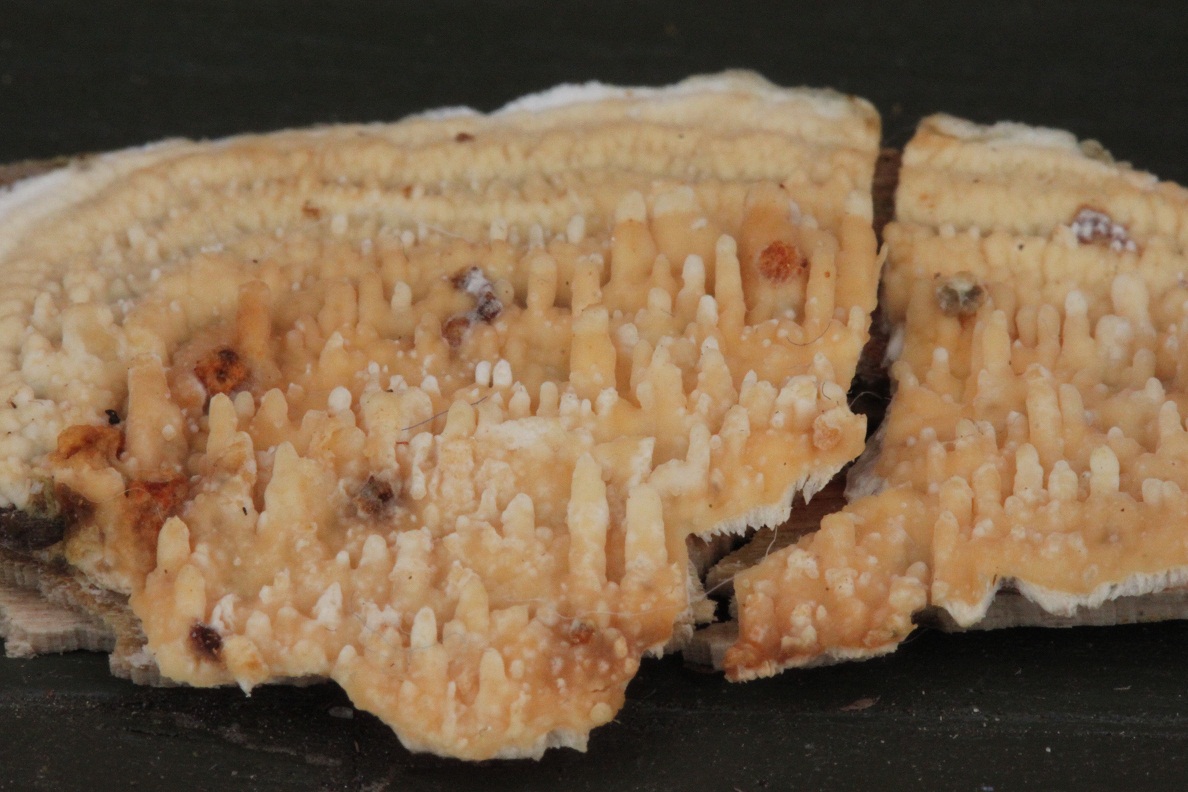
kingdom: Fungi
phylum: Basidiomycota
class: Agaricomycetes
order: Hymenochaetales
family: Schizoporaceae
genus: Xylodon
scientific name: Xylodon radula
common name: grovtandet kalkskind
